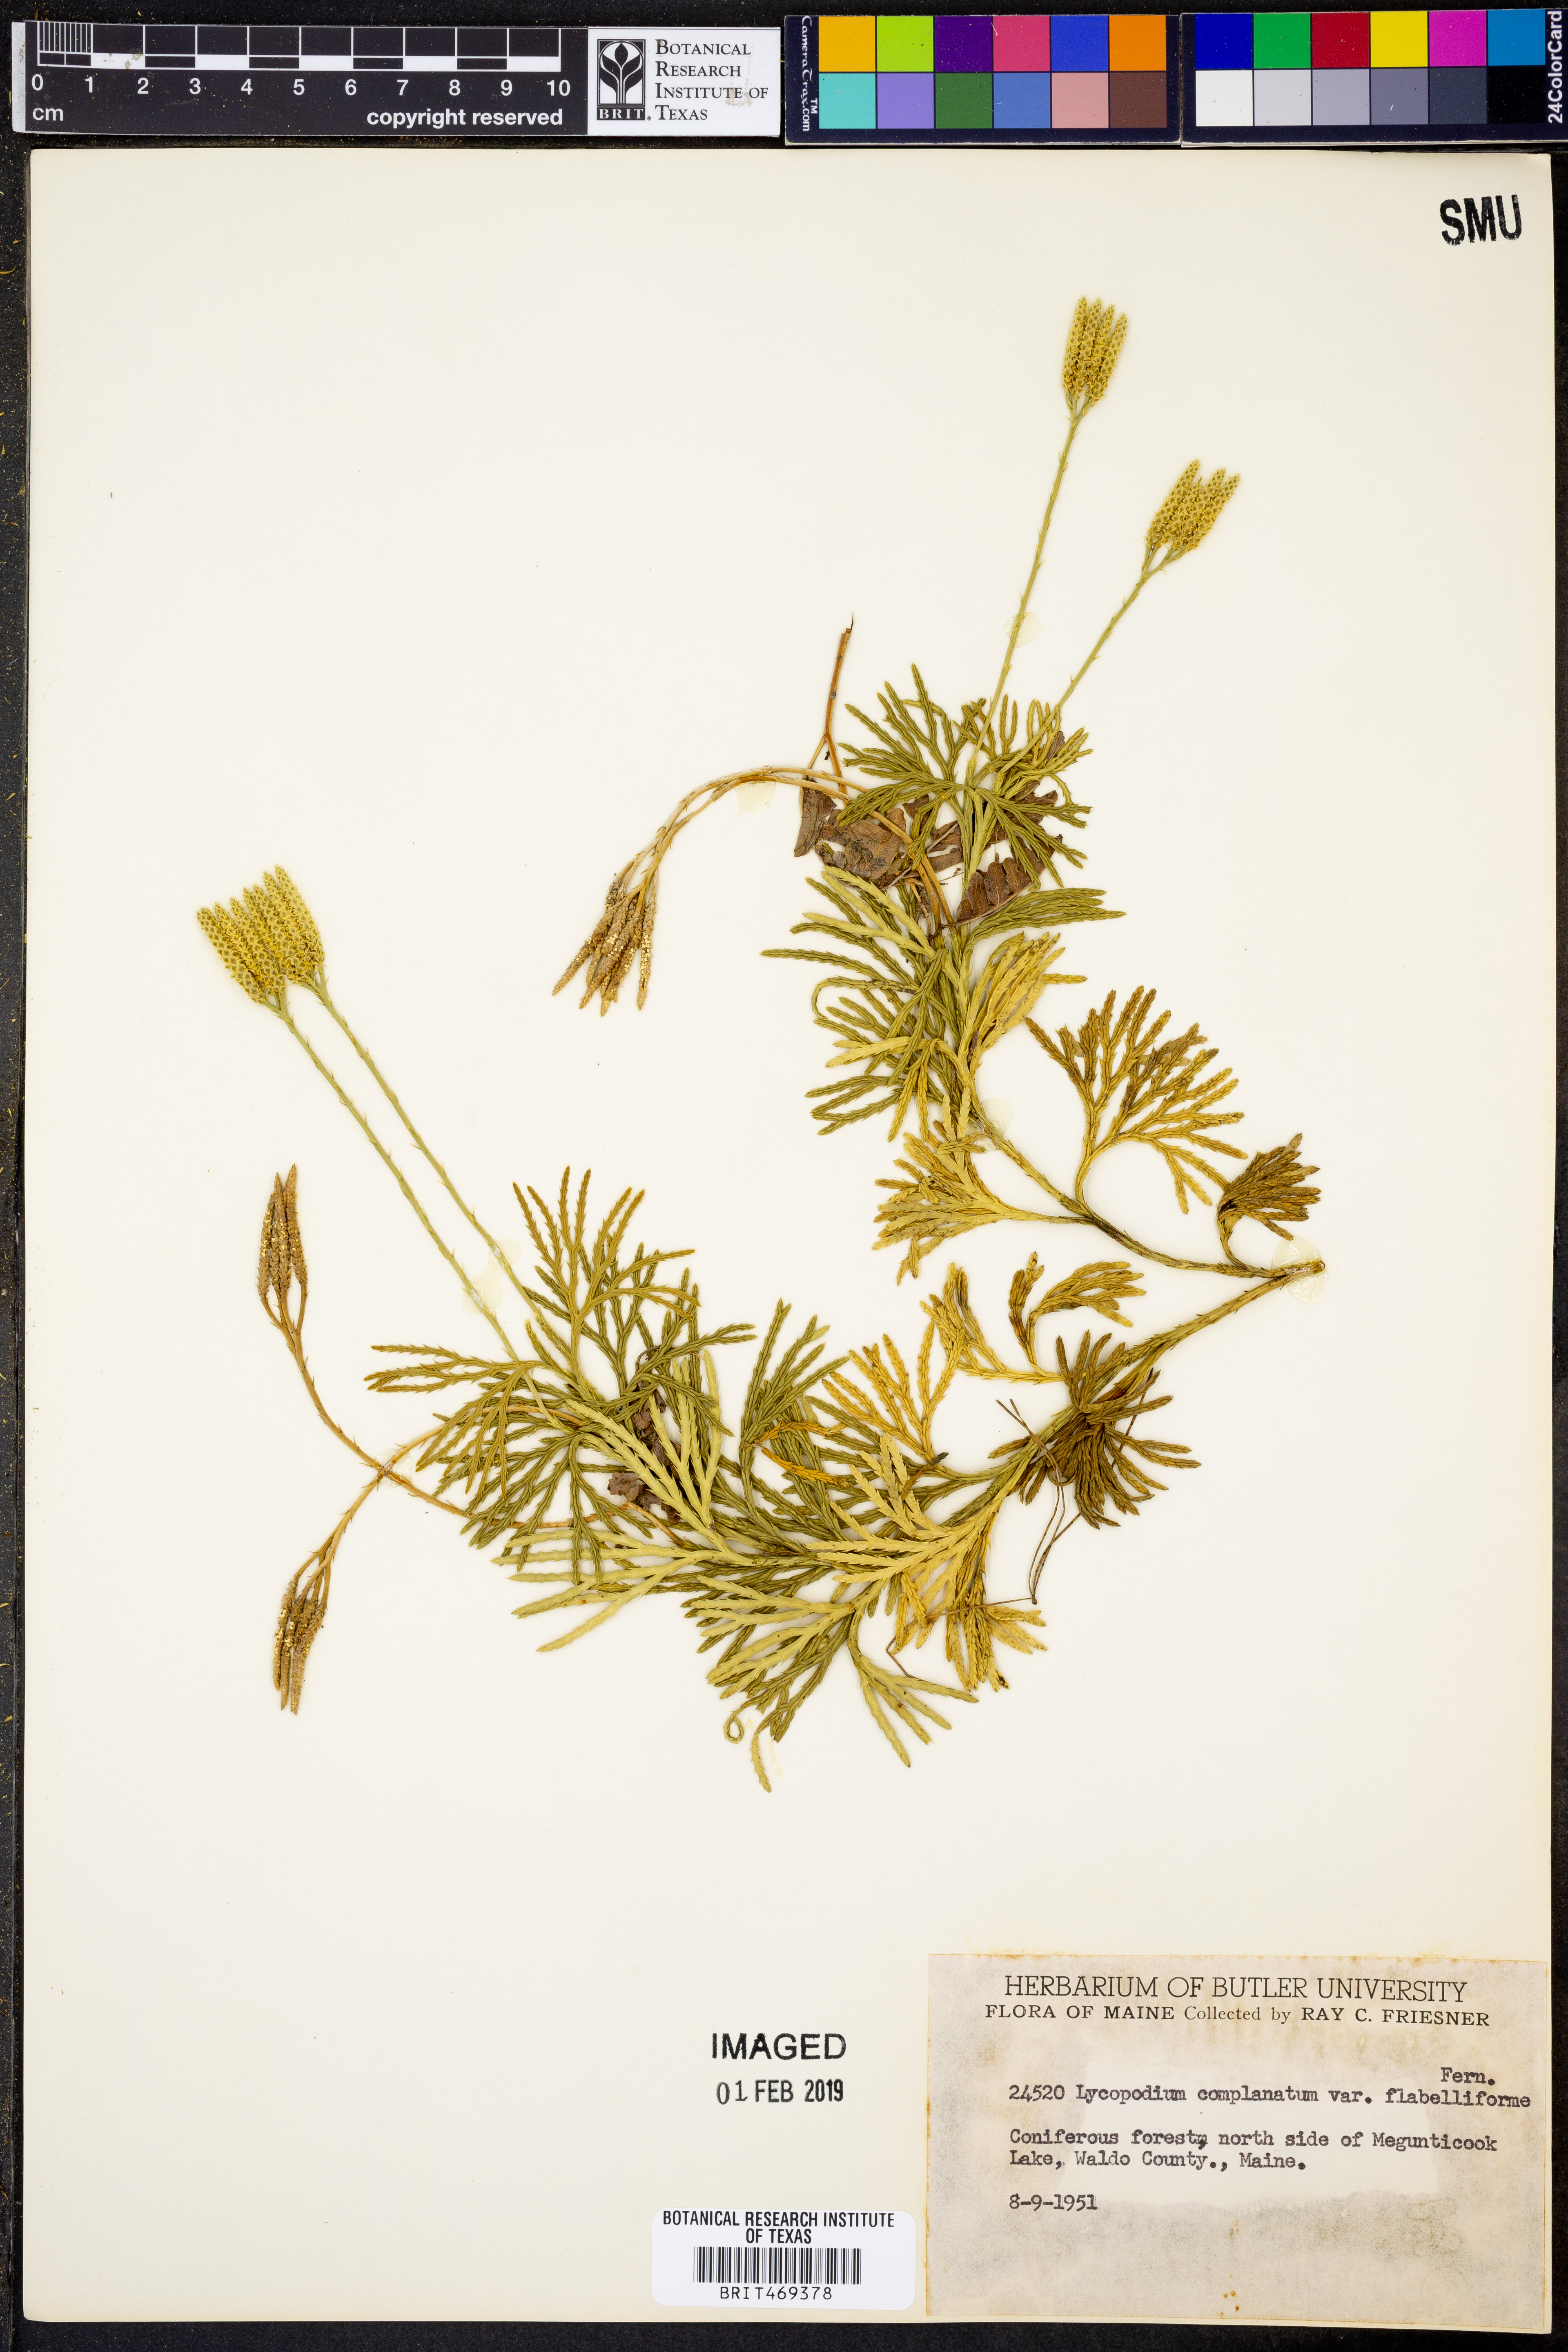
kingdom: Plantae
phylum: Tracheophyta
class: Lycopodiopsida
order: Lycopodiales
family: Lycopodiaceae
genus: Diphasiastrum
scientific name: Diphasiastrum digitatum
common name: Southern running-pine
